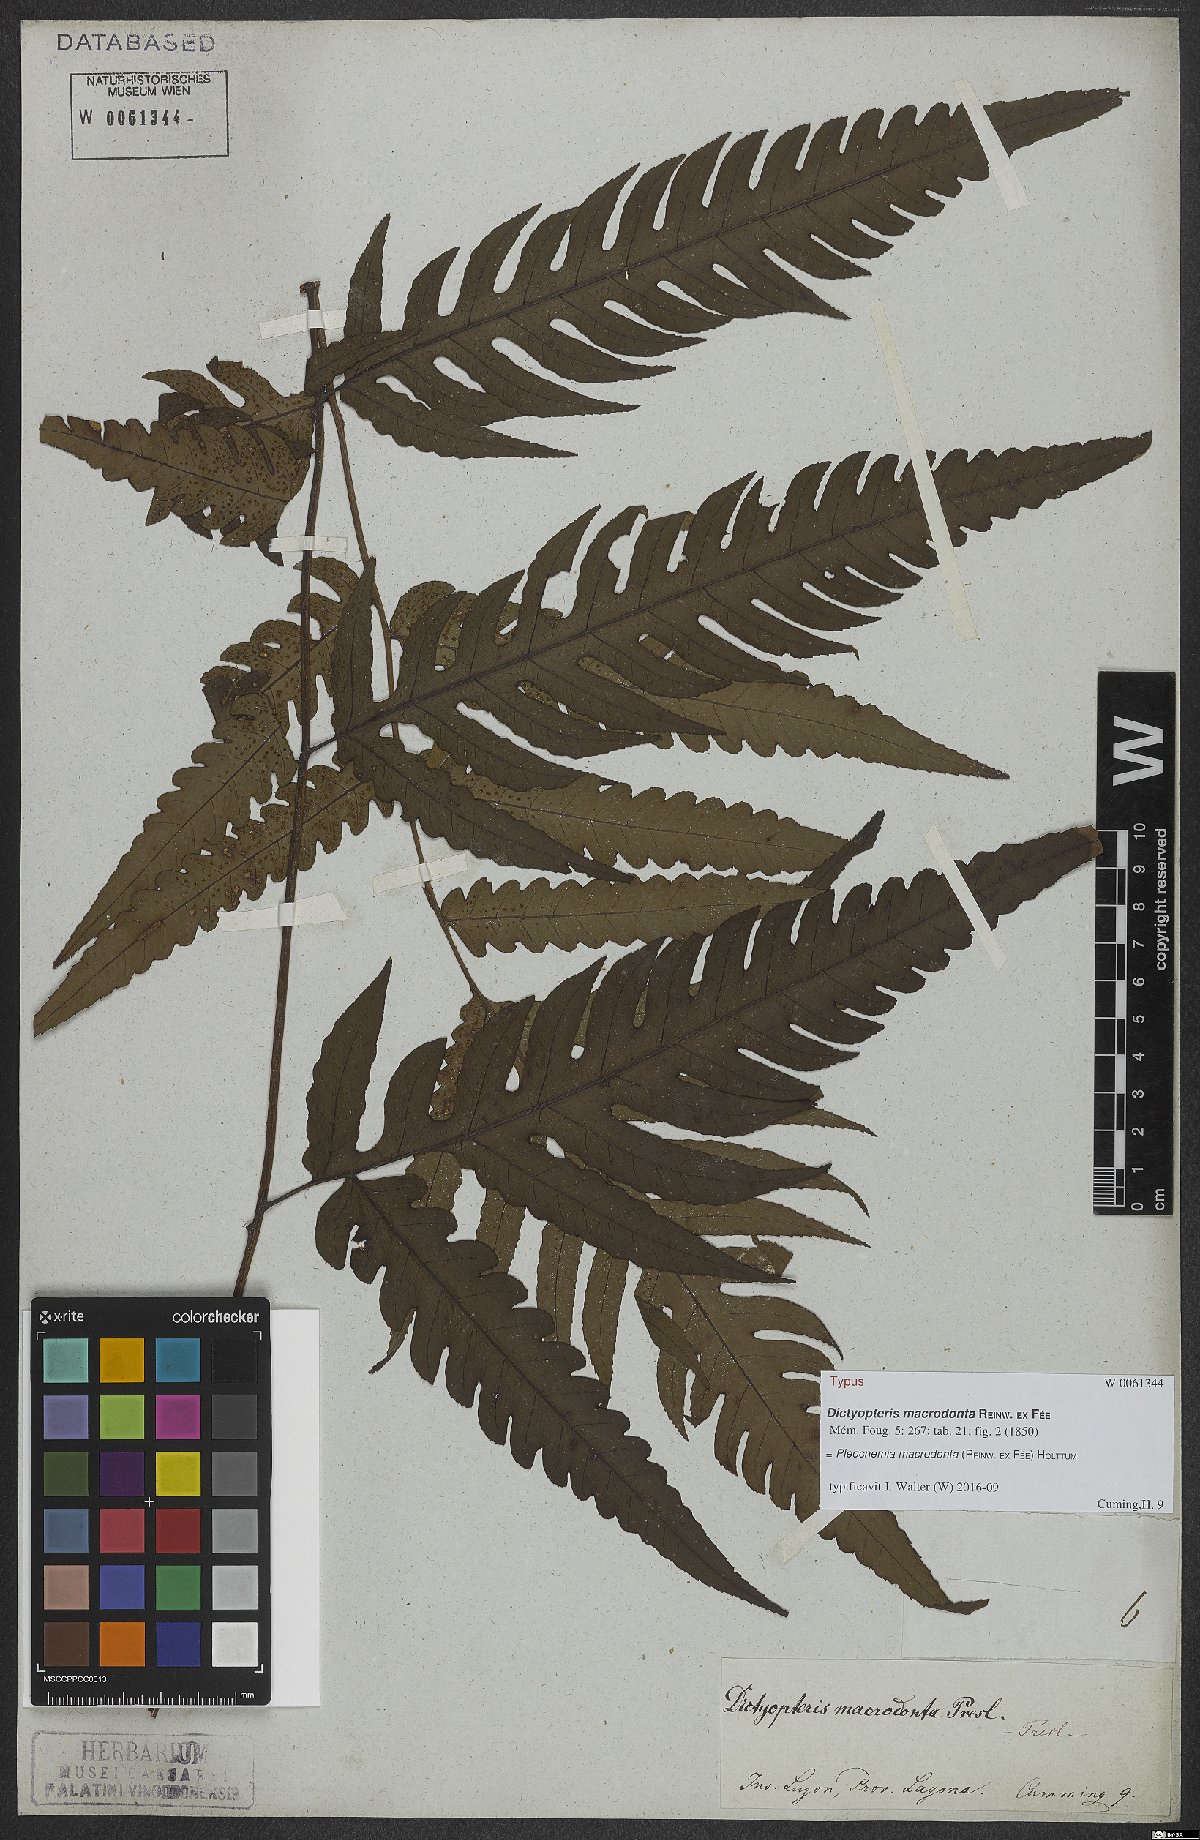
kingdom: Plantae
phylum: Tracheophyta
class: Polypodiopsida
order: Polypodiales
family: Dryopteridaceae
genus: Pleocnemia
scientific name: Pleocnemia macrodonta
